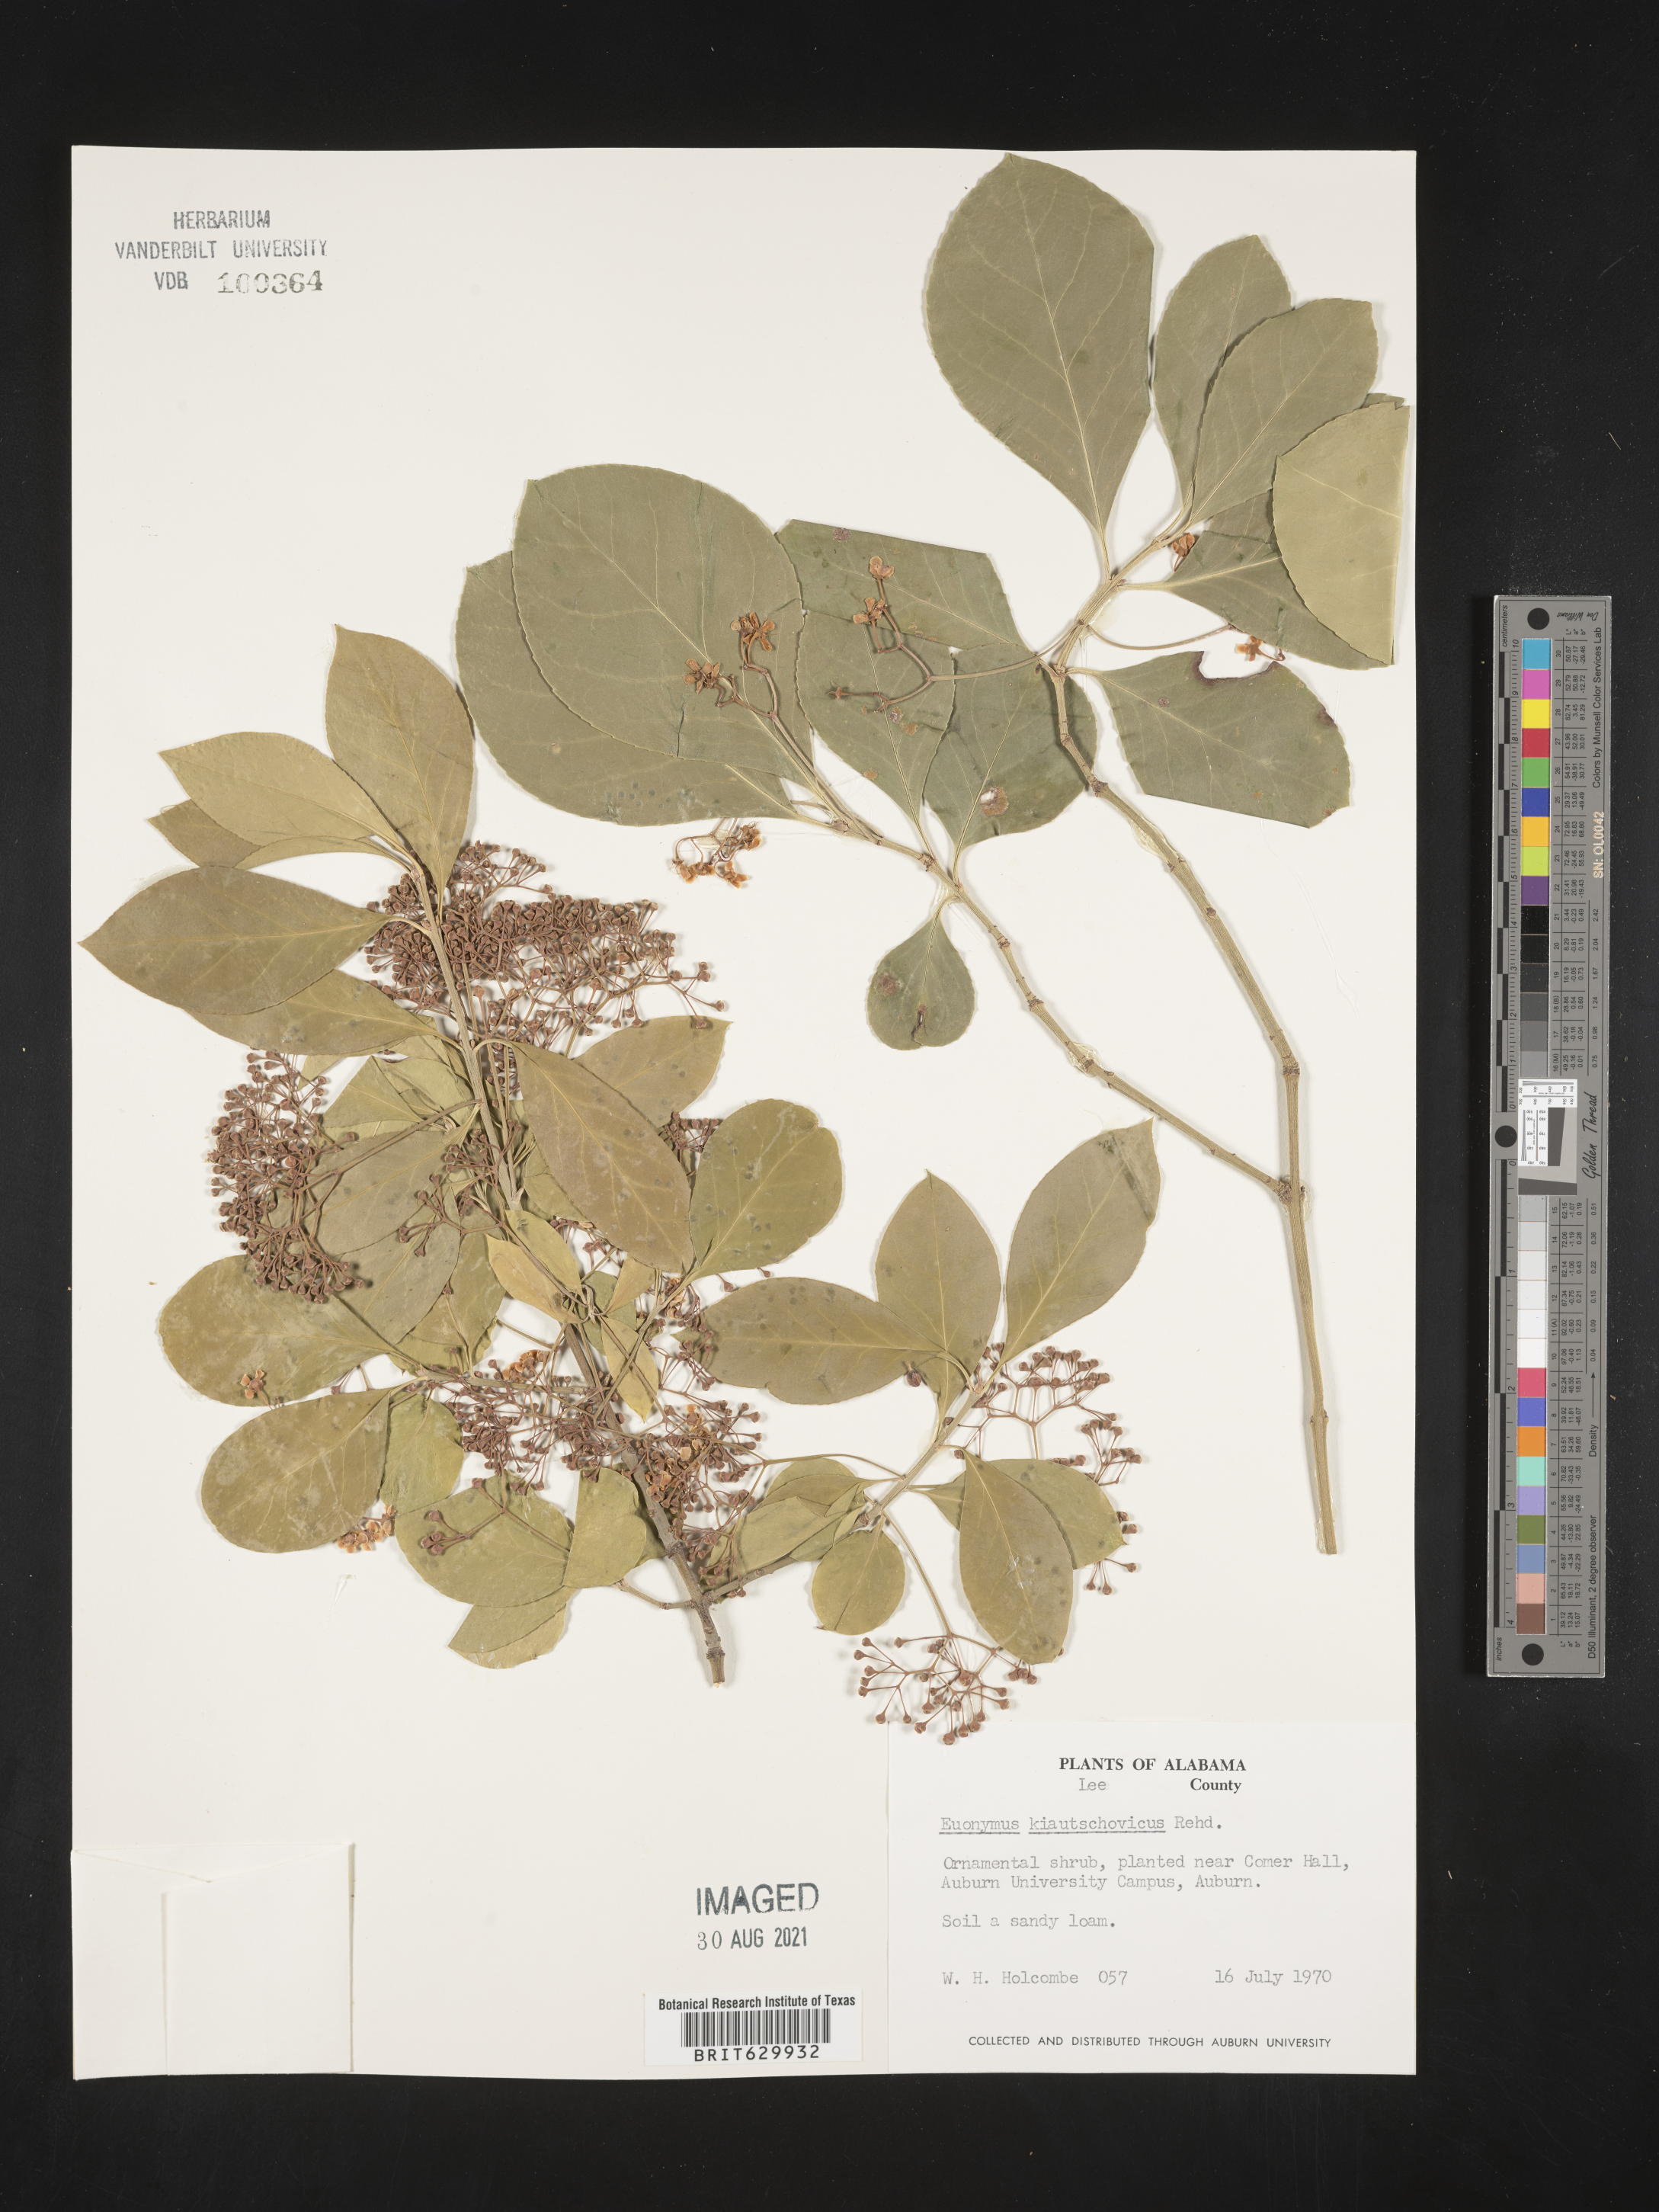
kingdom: Plantae
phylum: Tracheophyta
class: Magnoliopsida
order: Celastrales
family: Celastraceae
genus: Euonymus
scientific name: Euonymus fortunei
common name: Climbing euonymus
